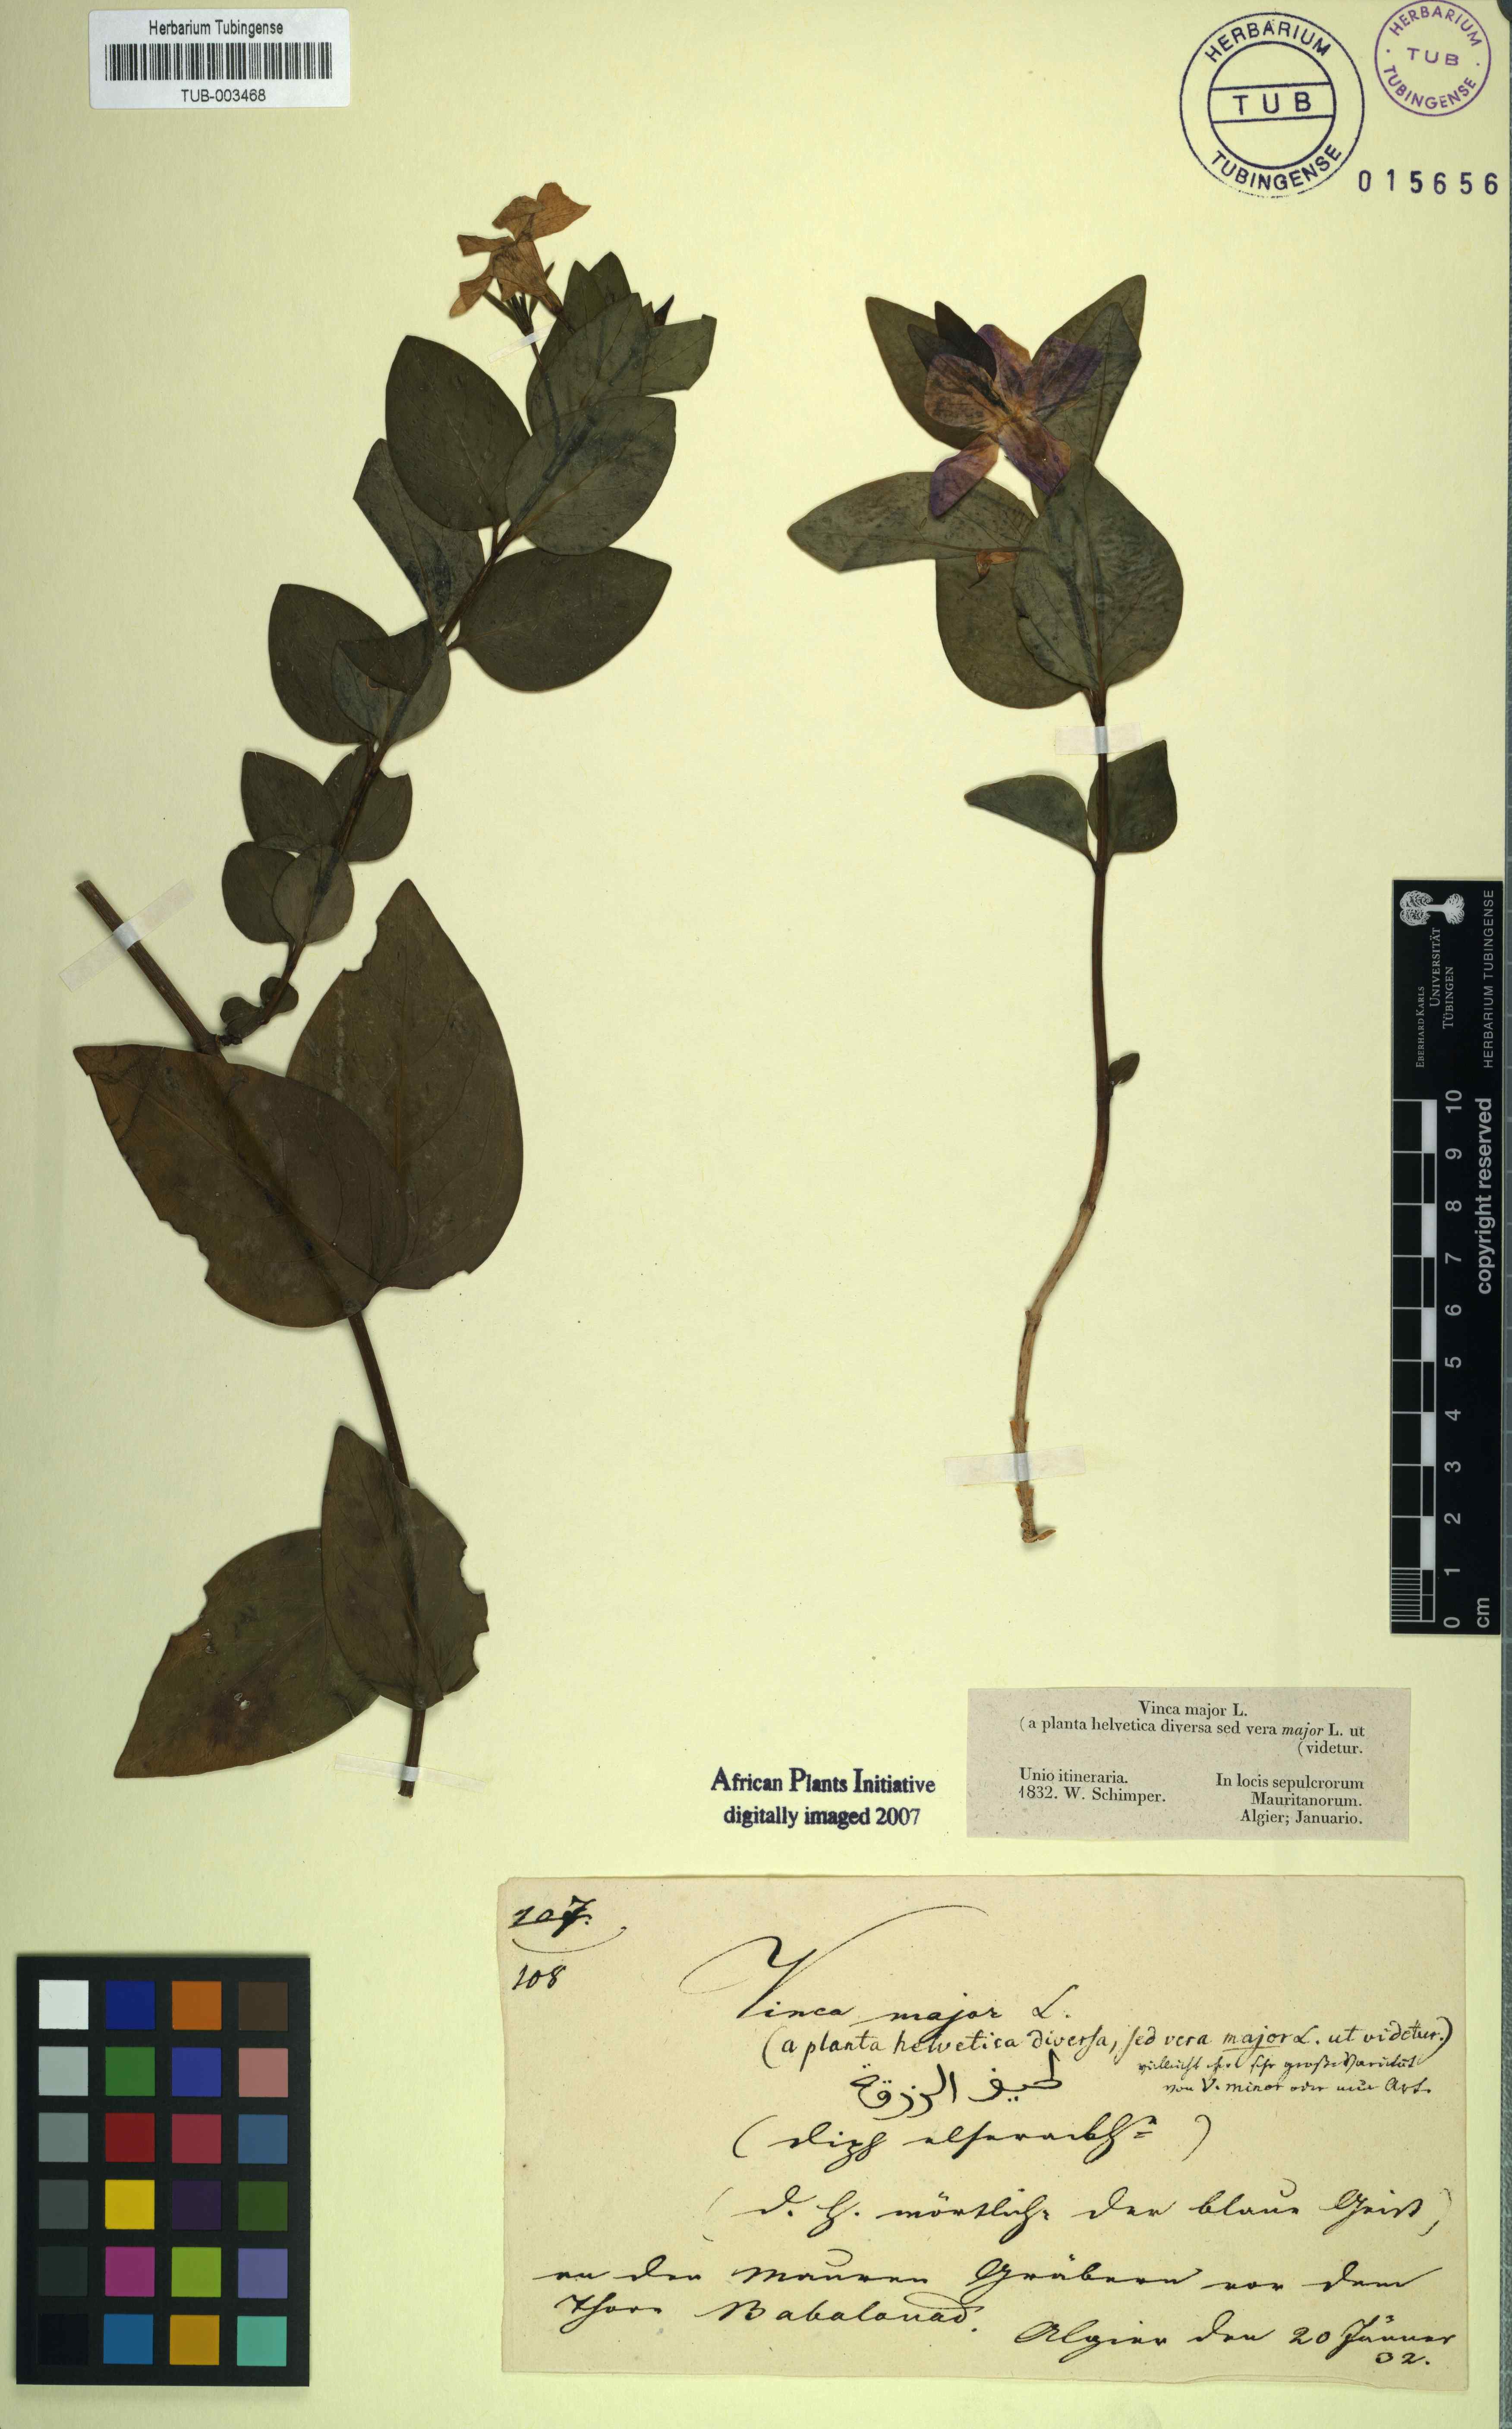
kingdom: Plantae
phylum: Tracheophyta
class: Magnoliopsida
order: Gentianales
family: Apocynaceae
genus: Vinca
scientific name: Vinca major
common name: Greater periwinkle
